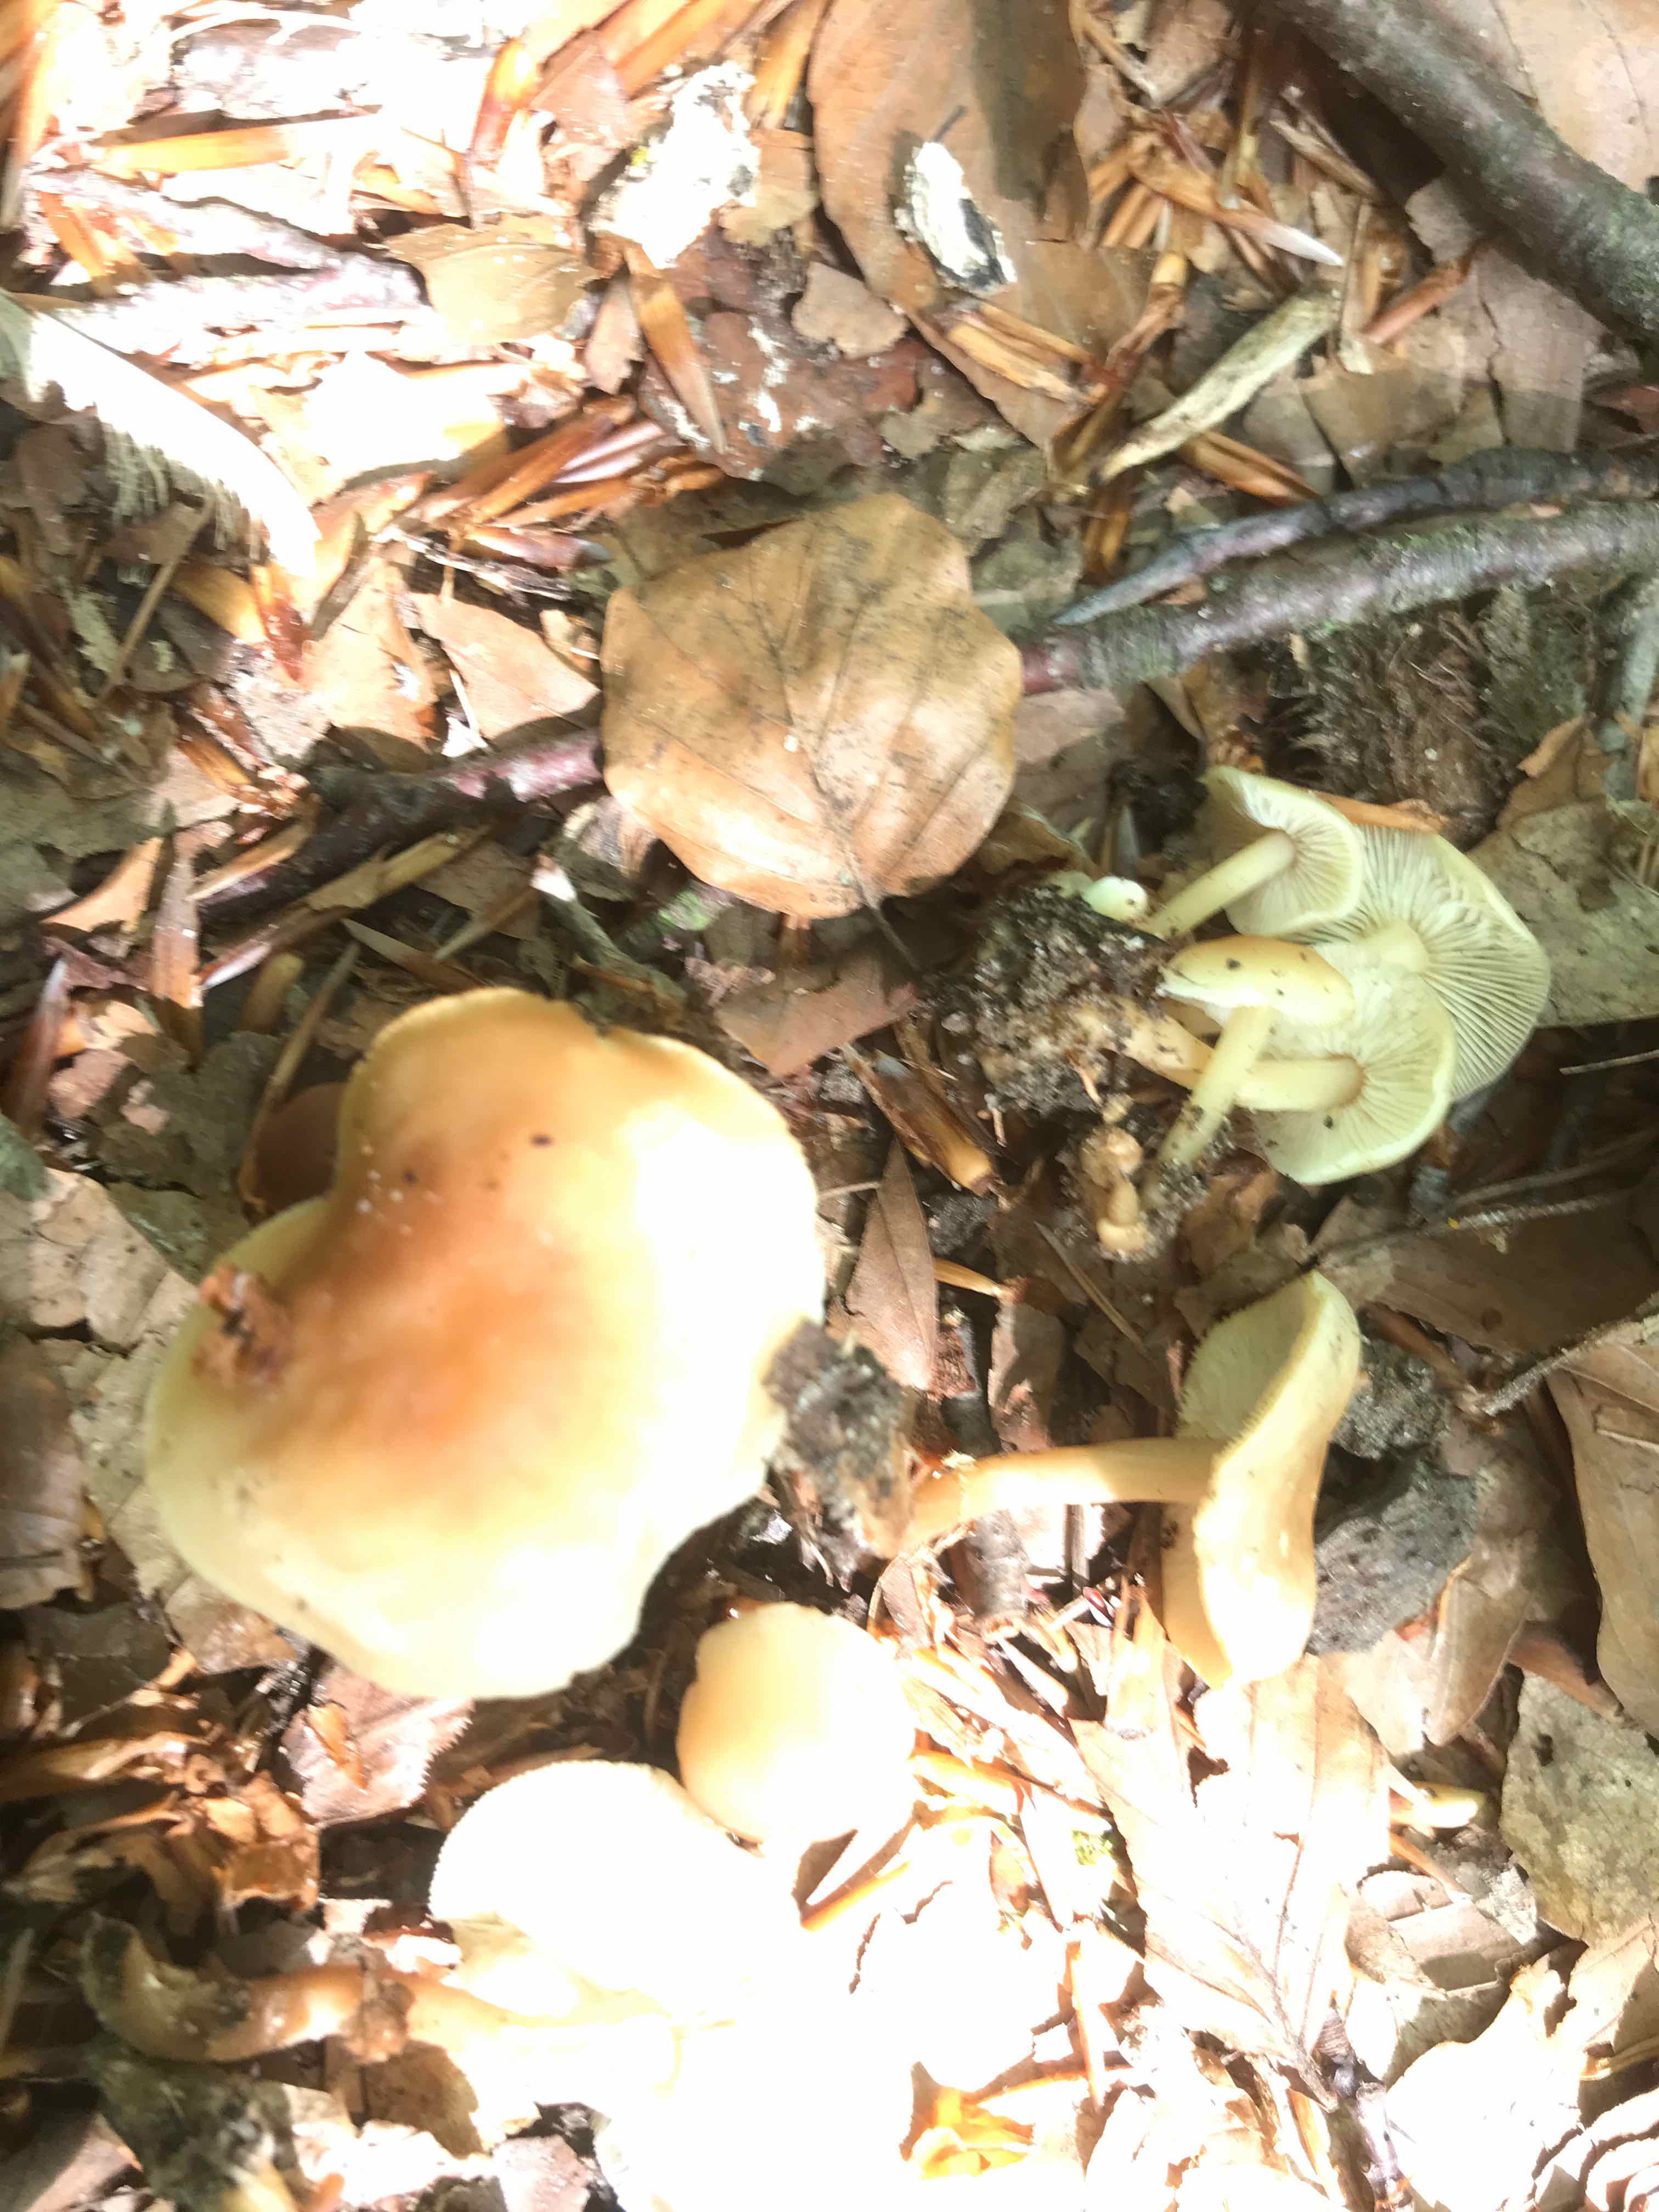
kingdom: Fungi
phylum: Basidiomycota
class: Agaricomycetes
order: Agaricales
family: Omphalotaceae
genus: Gymnopus
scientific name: Gymnopus
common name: fladhat
